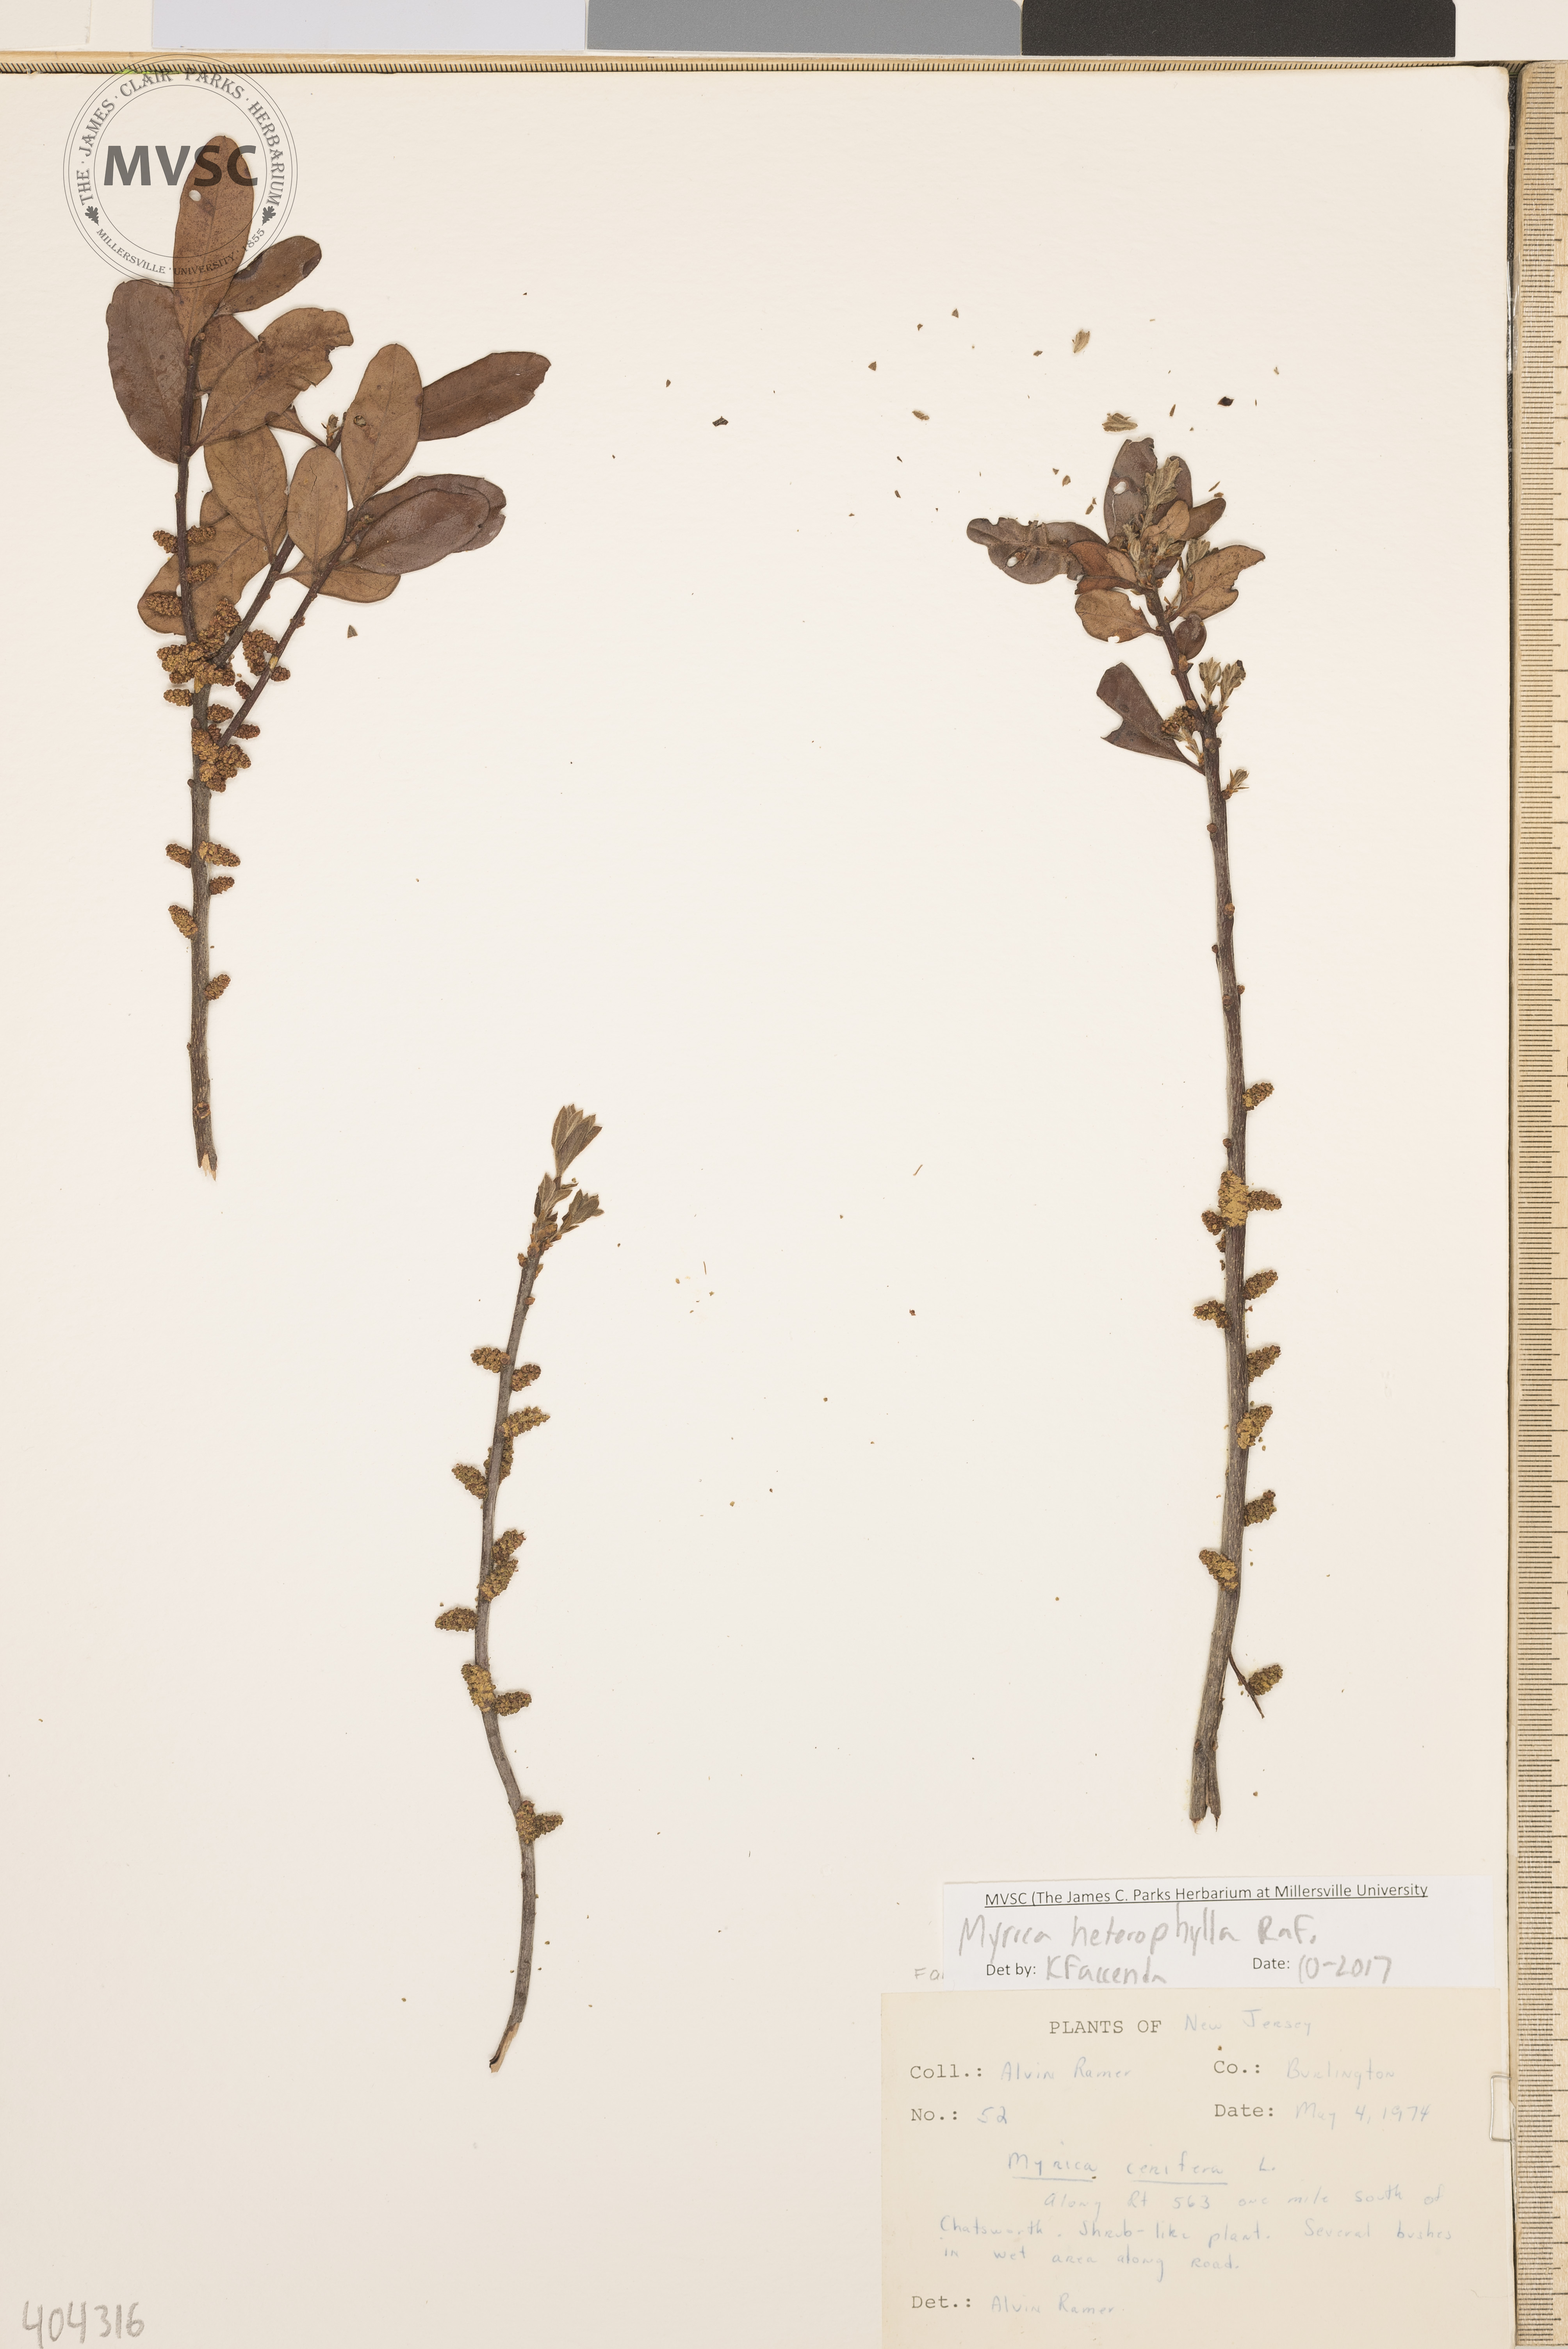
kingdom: Plantae
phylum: Tracheophyta
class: Magnoliopsida
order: Fagales
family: Myricaceae
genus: Morella
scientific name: Morella caroliniensis
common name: Southern bayberry
